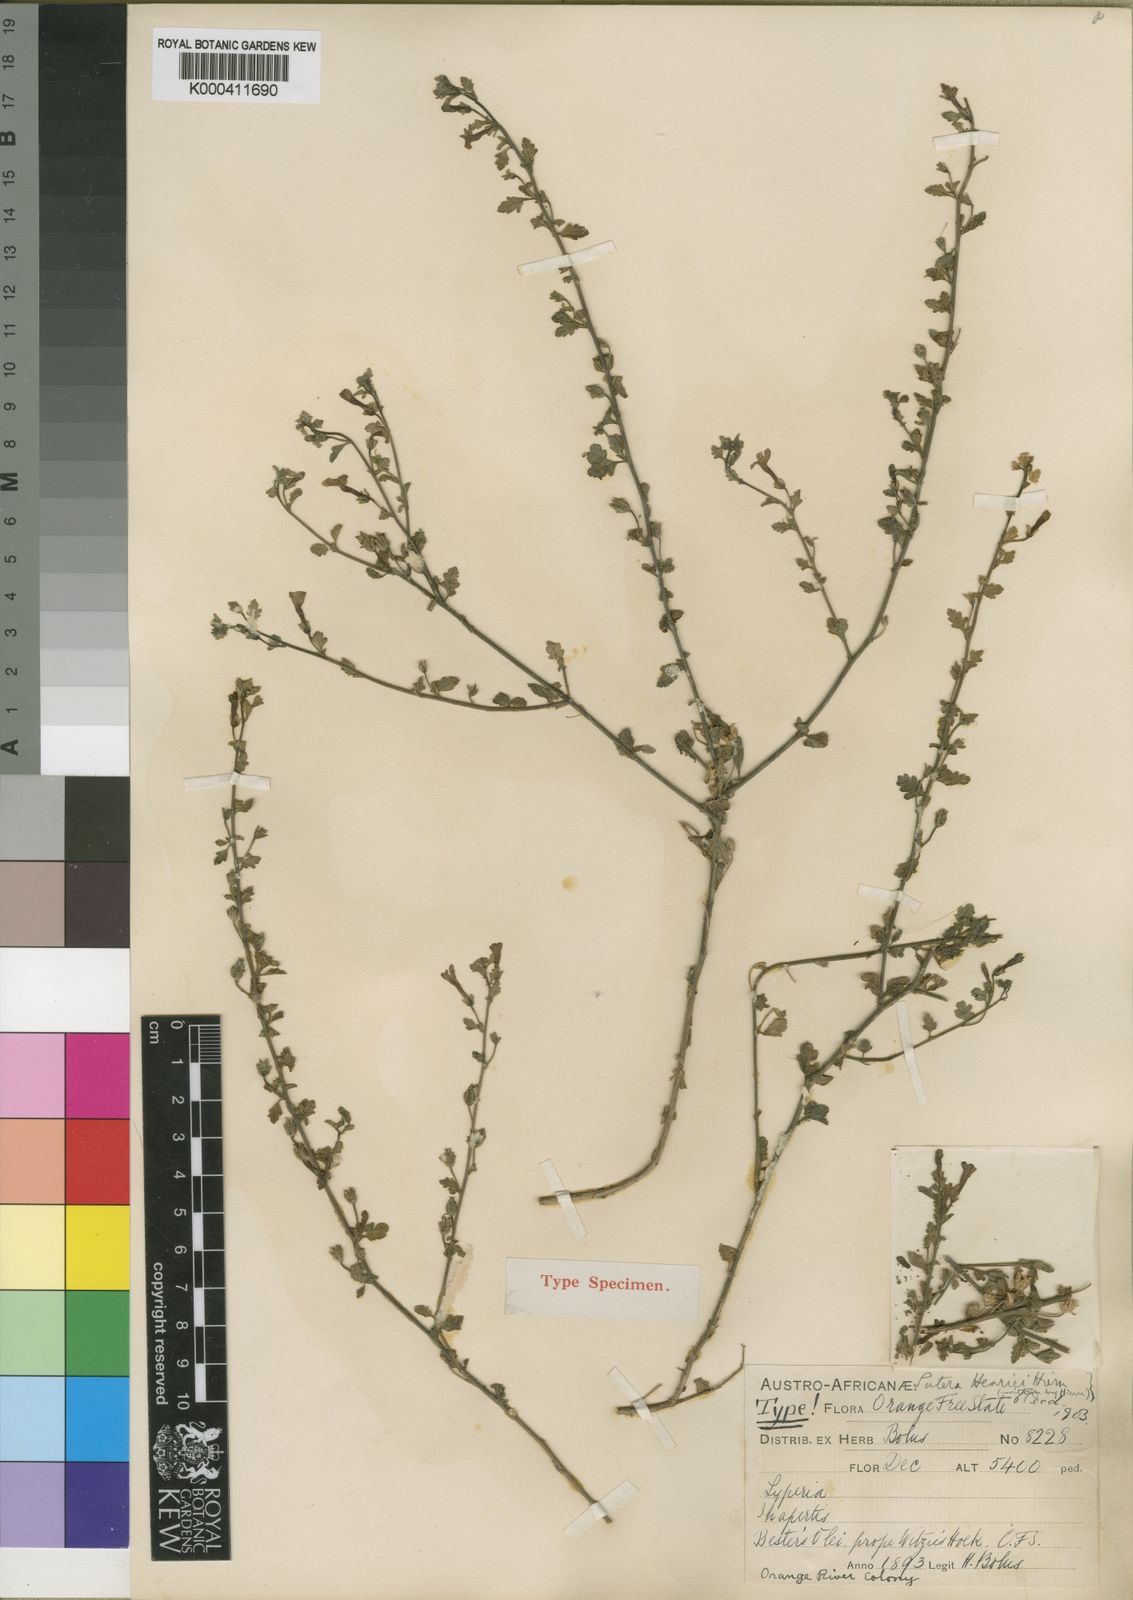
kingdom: Plantae
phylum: Tracheophyta
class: Magnoliopsida
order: Lamiales
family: Scrophulariaceae
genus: Jamesbrittenia
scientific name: Jamesbrittenia filicaulis
